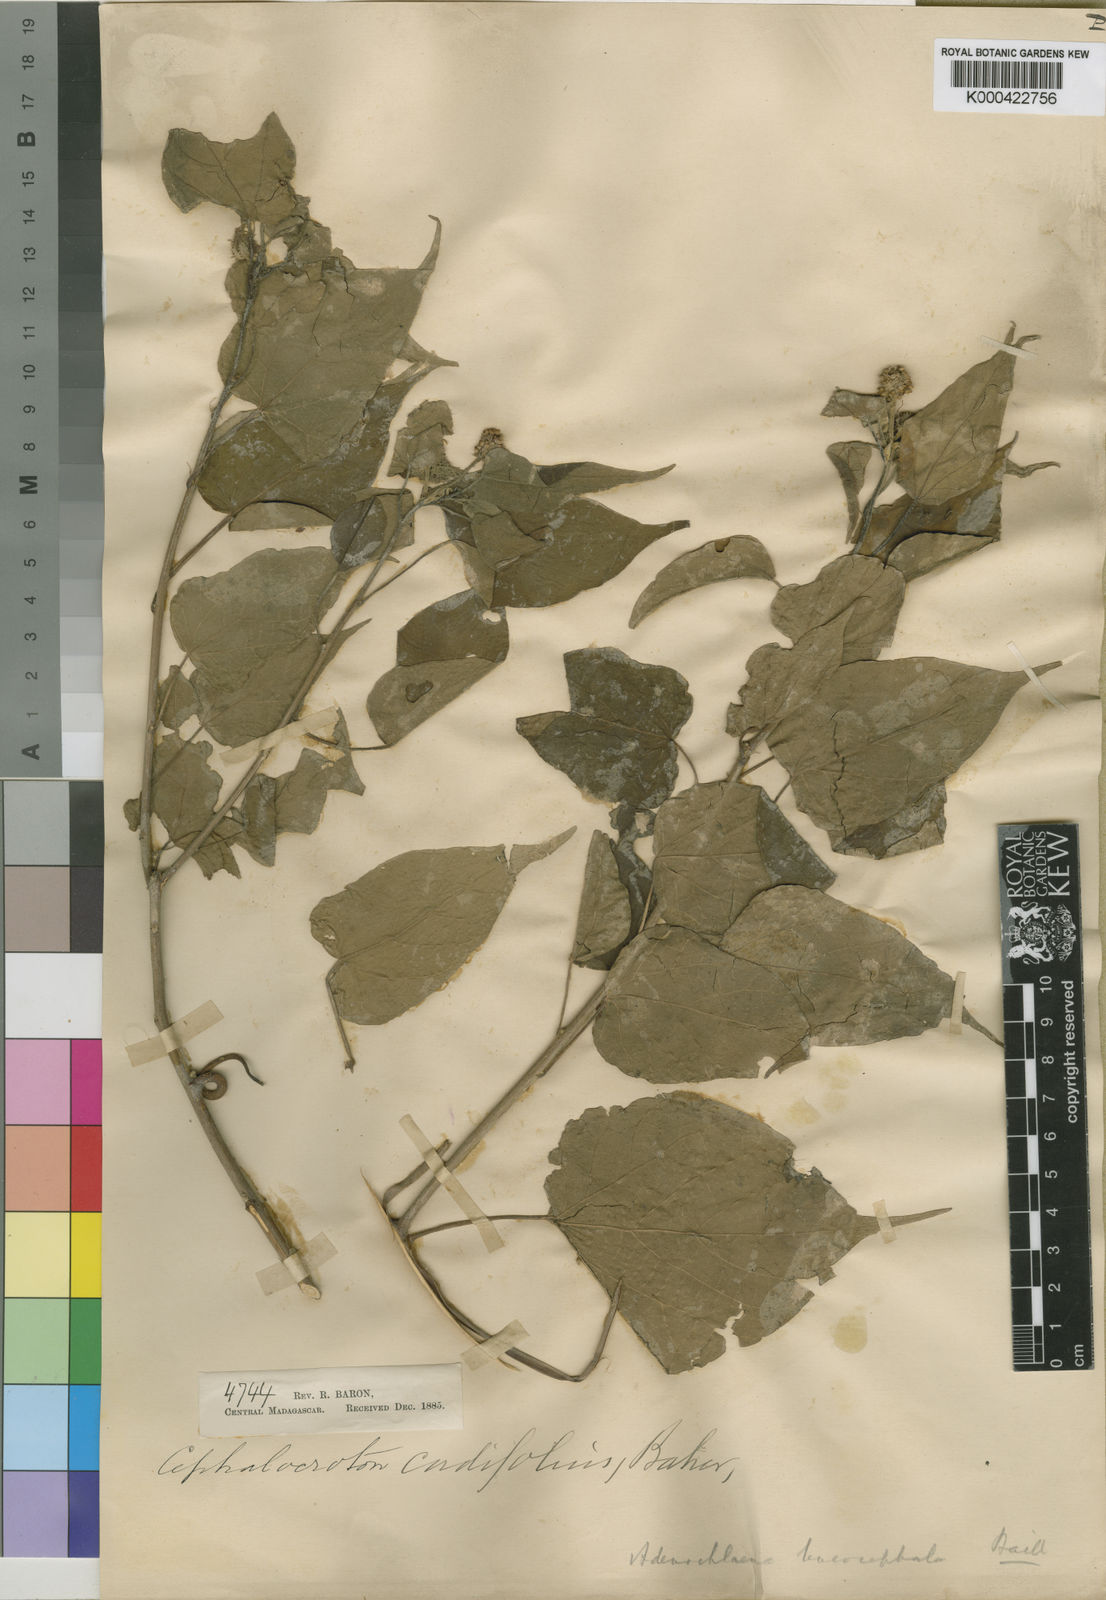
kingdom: Plantae
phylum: Tracheophyta
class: Magnoliopsida
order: Malpighiales
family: Euphorbiaceae
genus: Adenochlaena
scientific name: Adenochlaena leucocephala
